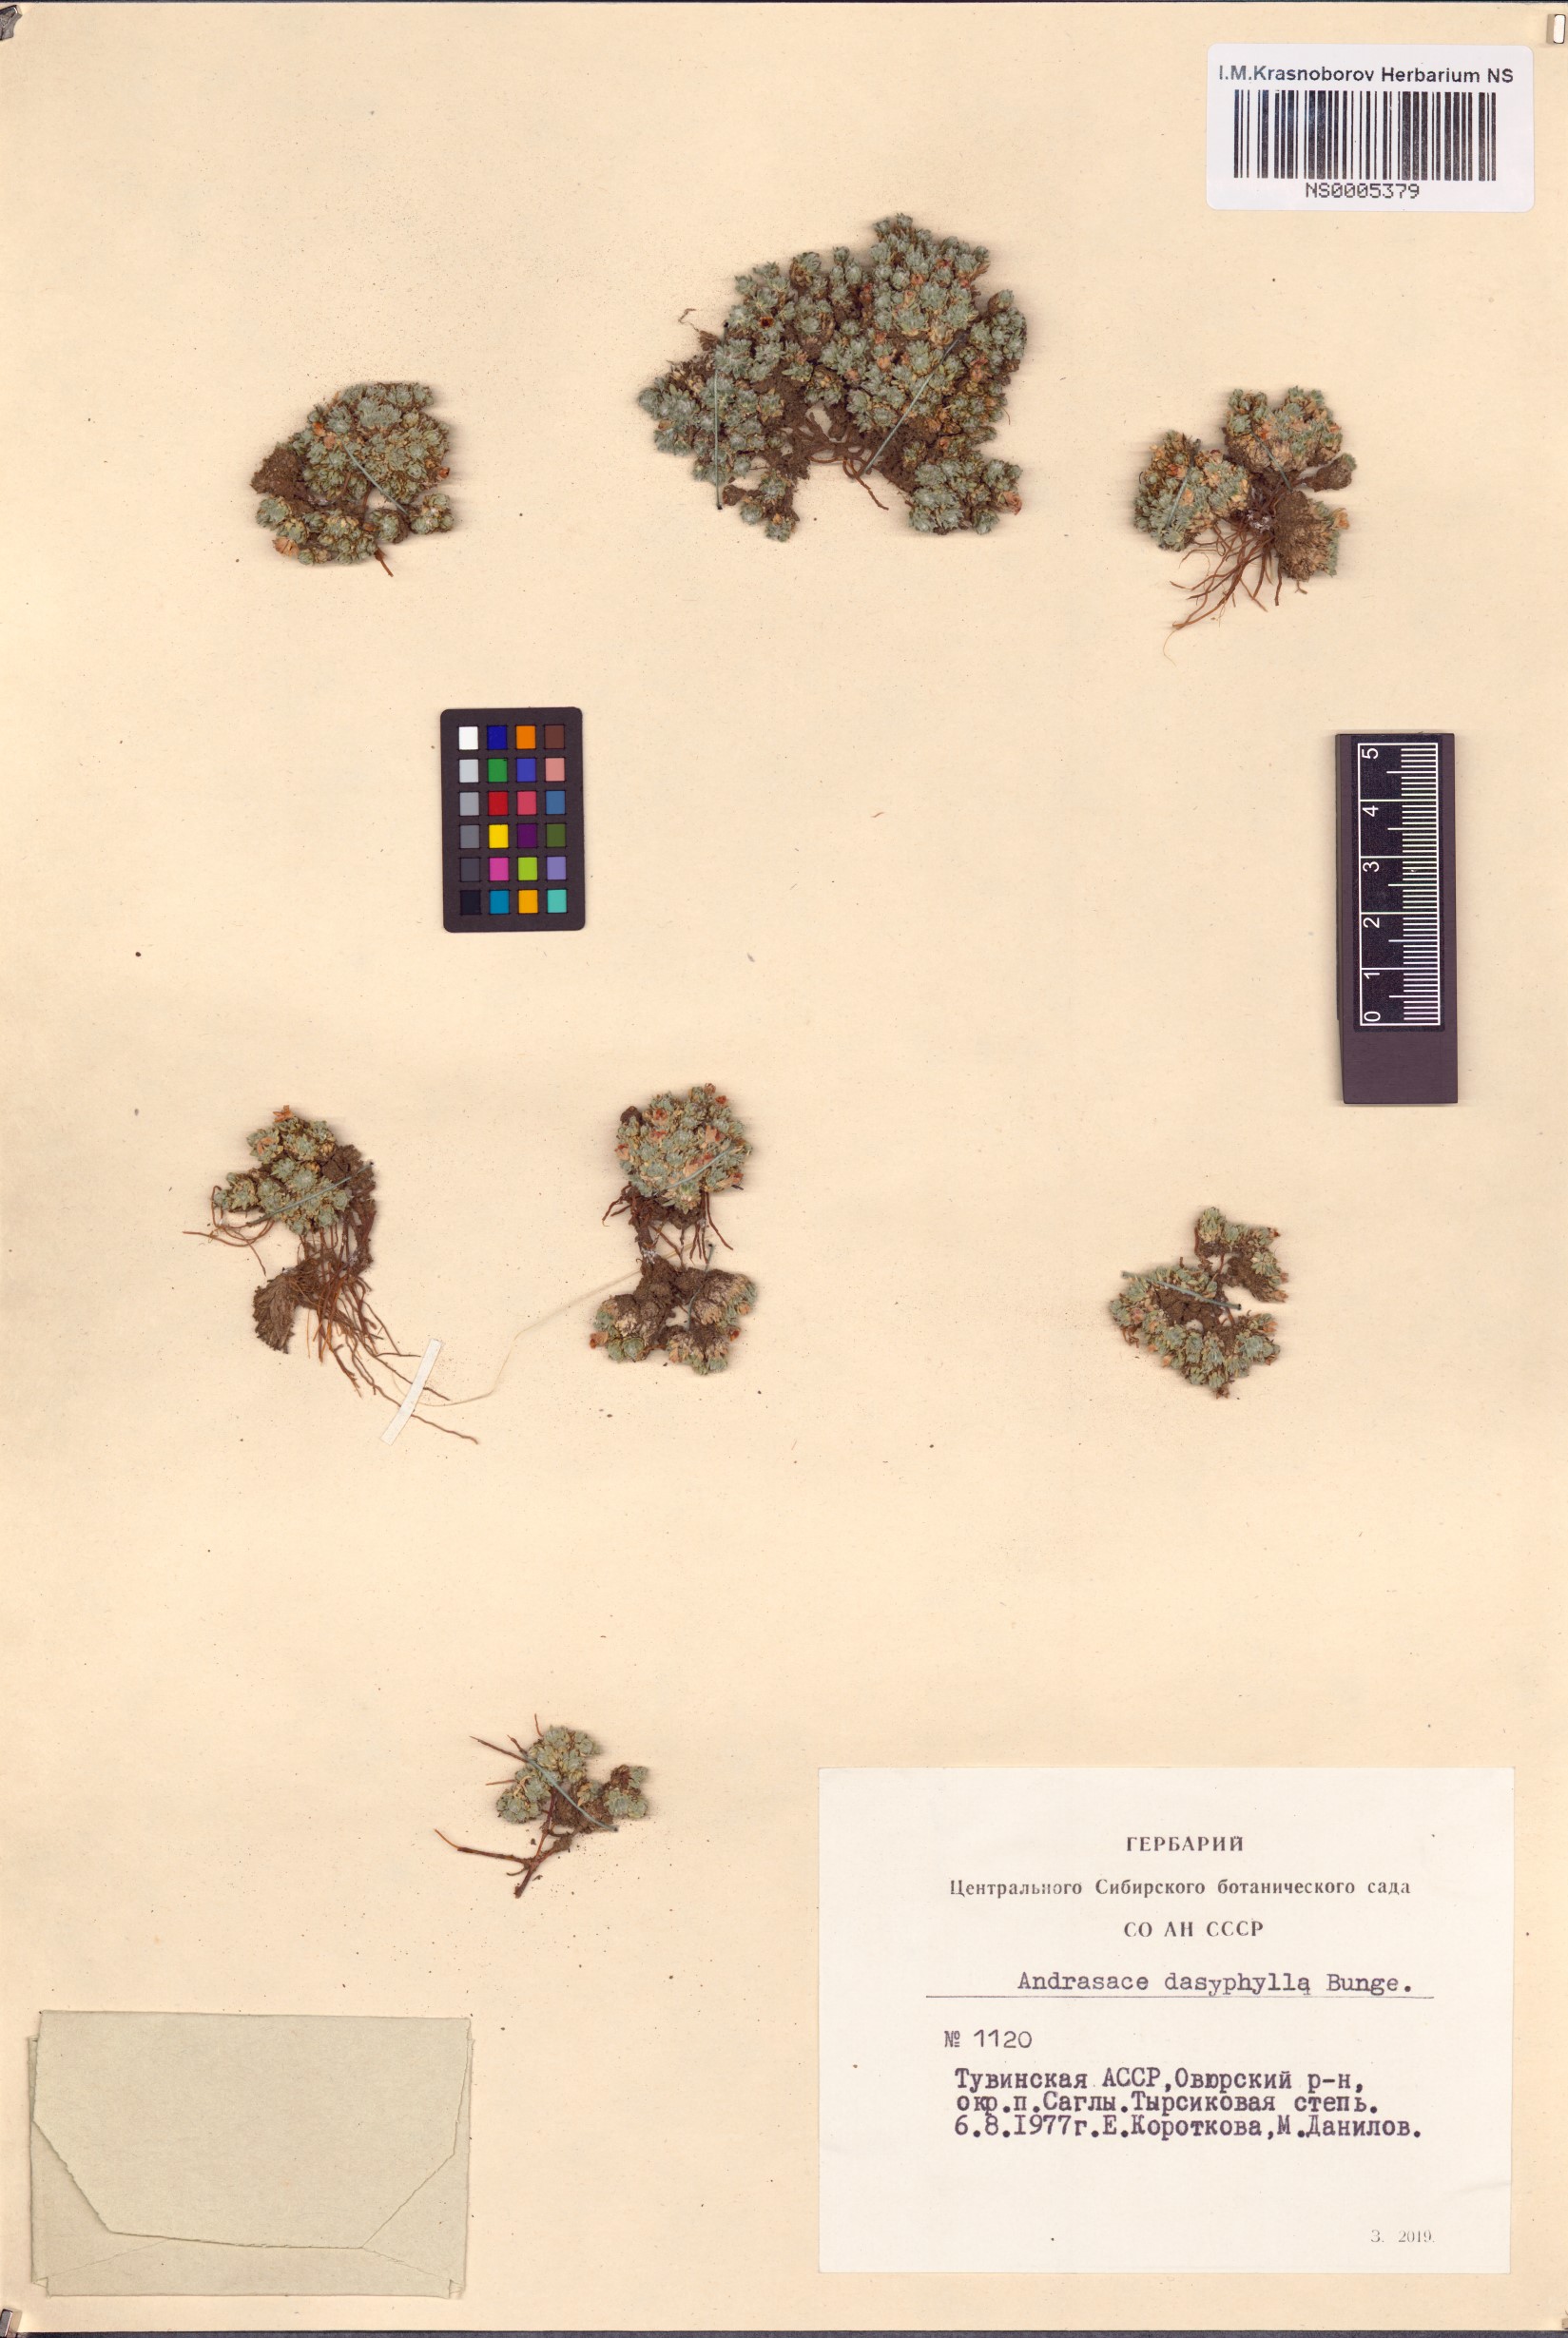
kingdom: Plantae
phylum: Tracheophyta
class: Magnoliopsida
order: Ericales
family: Primulaceae
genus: Androsace
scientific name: Androsace dasyphylla
